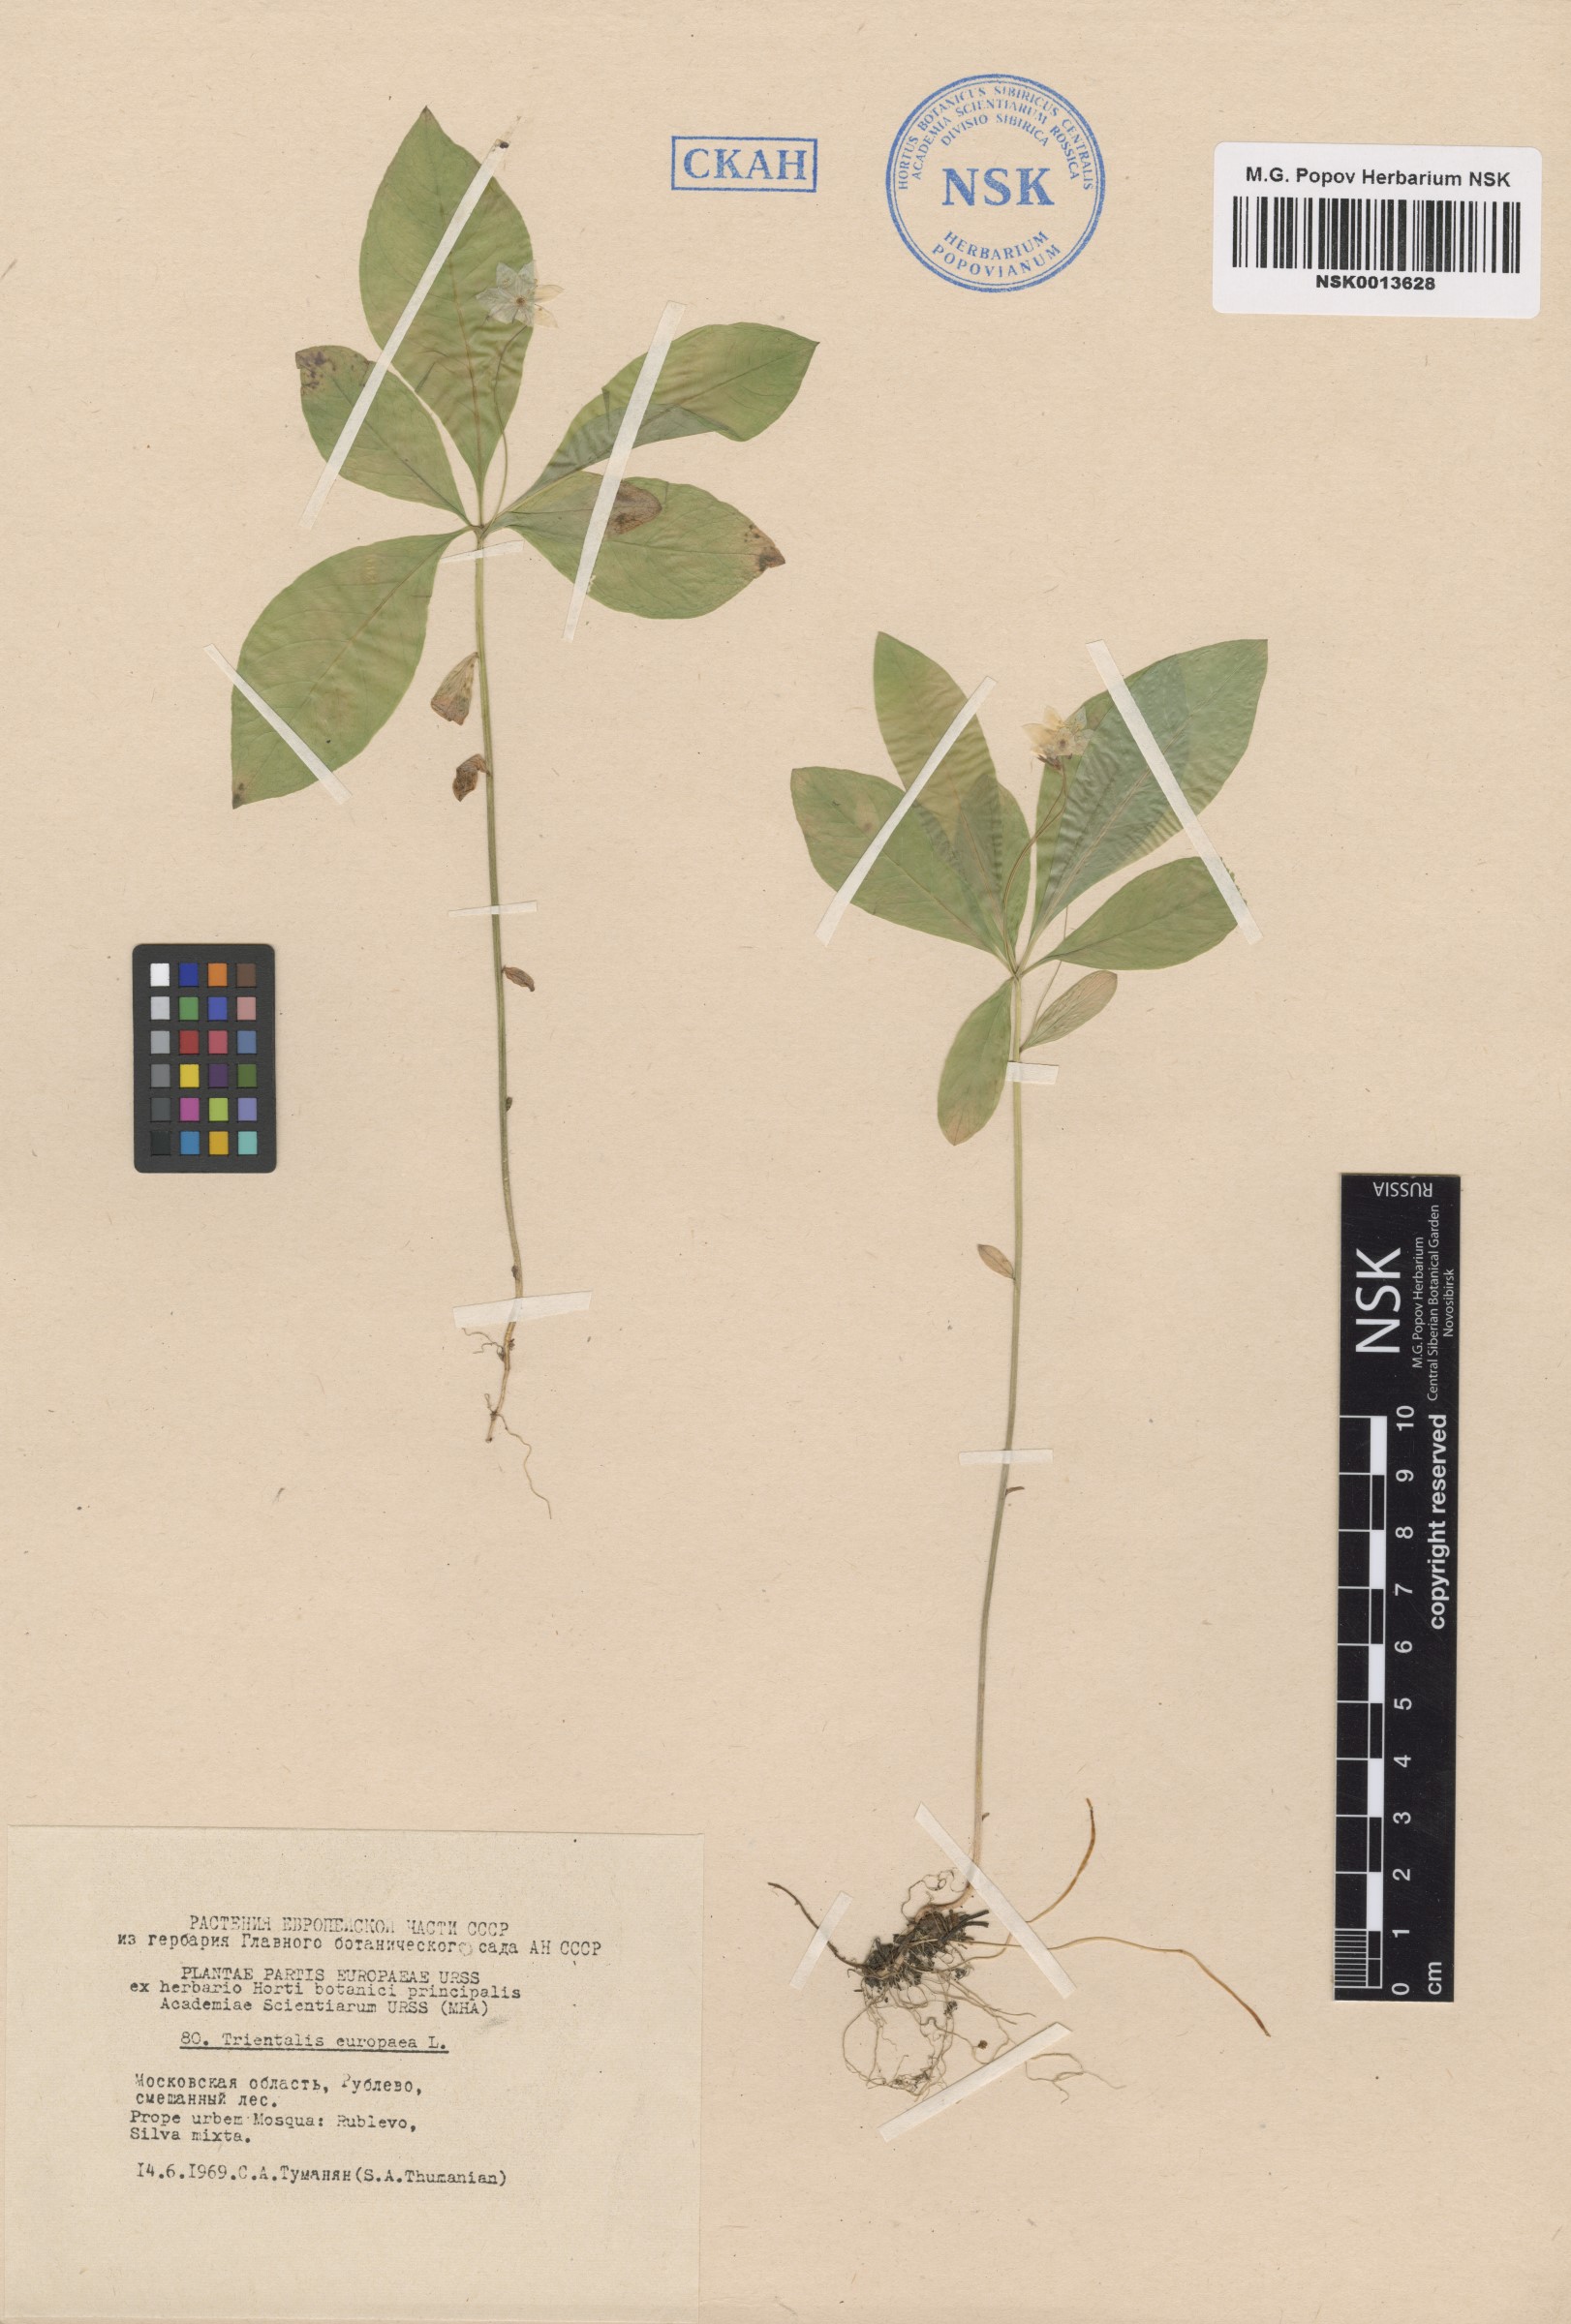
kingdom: Plantae
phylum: Tracheophyta
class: Magnoliopsida
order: Ericales
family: Primulaceae
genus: Lysimachia
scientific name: Lysimachia europaea
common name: Arctic starflower
